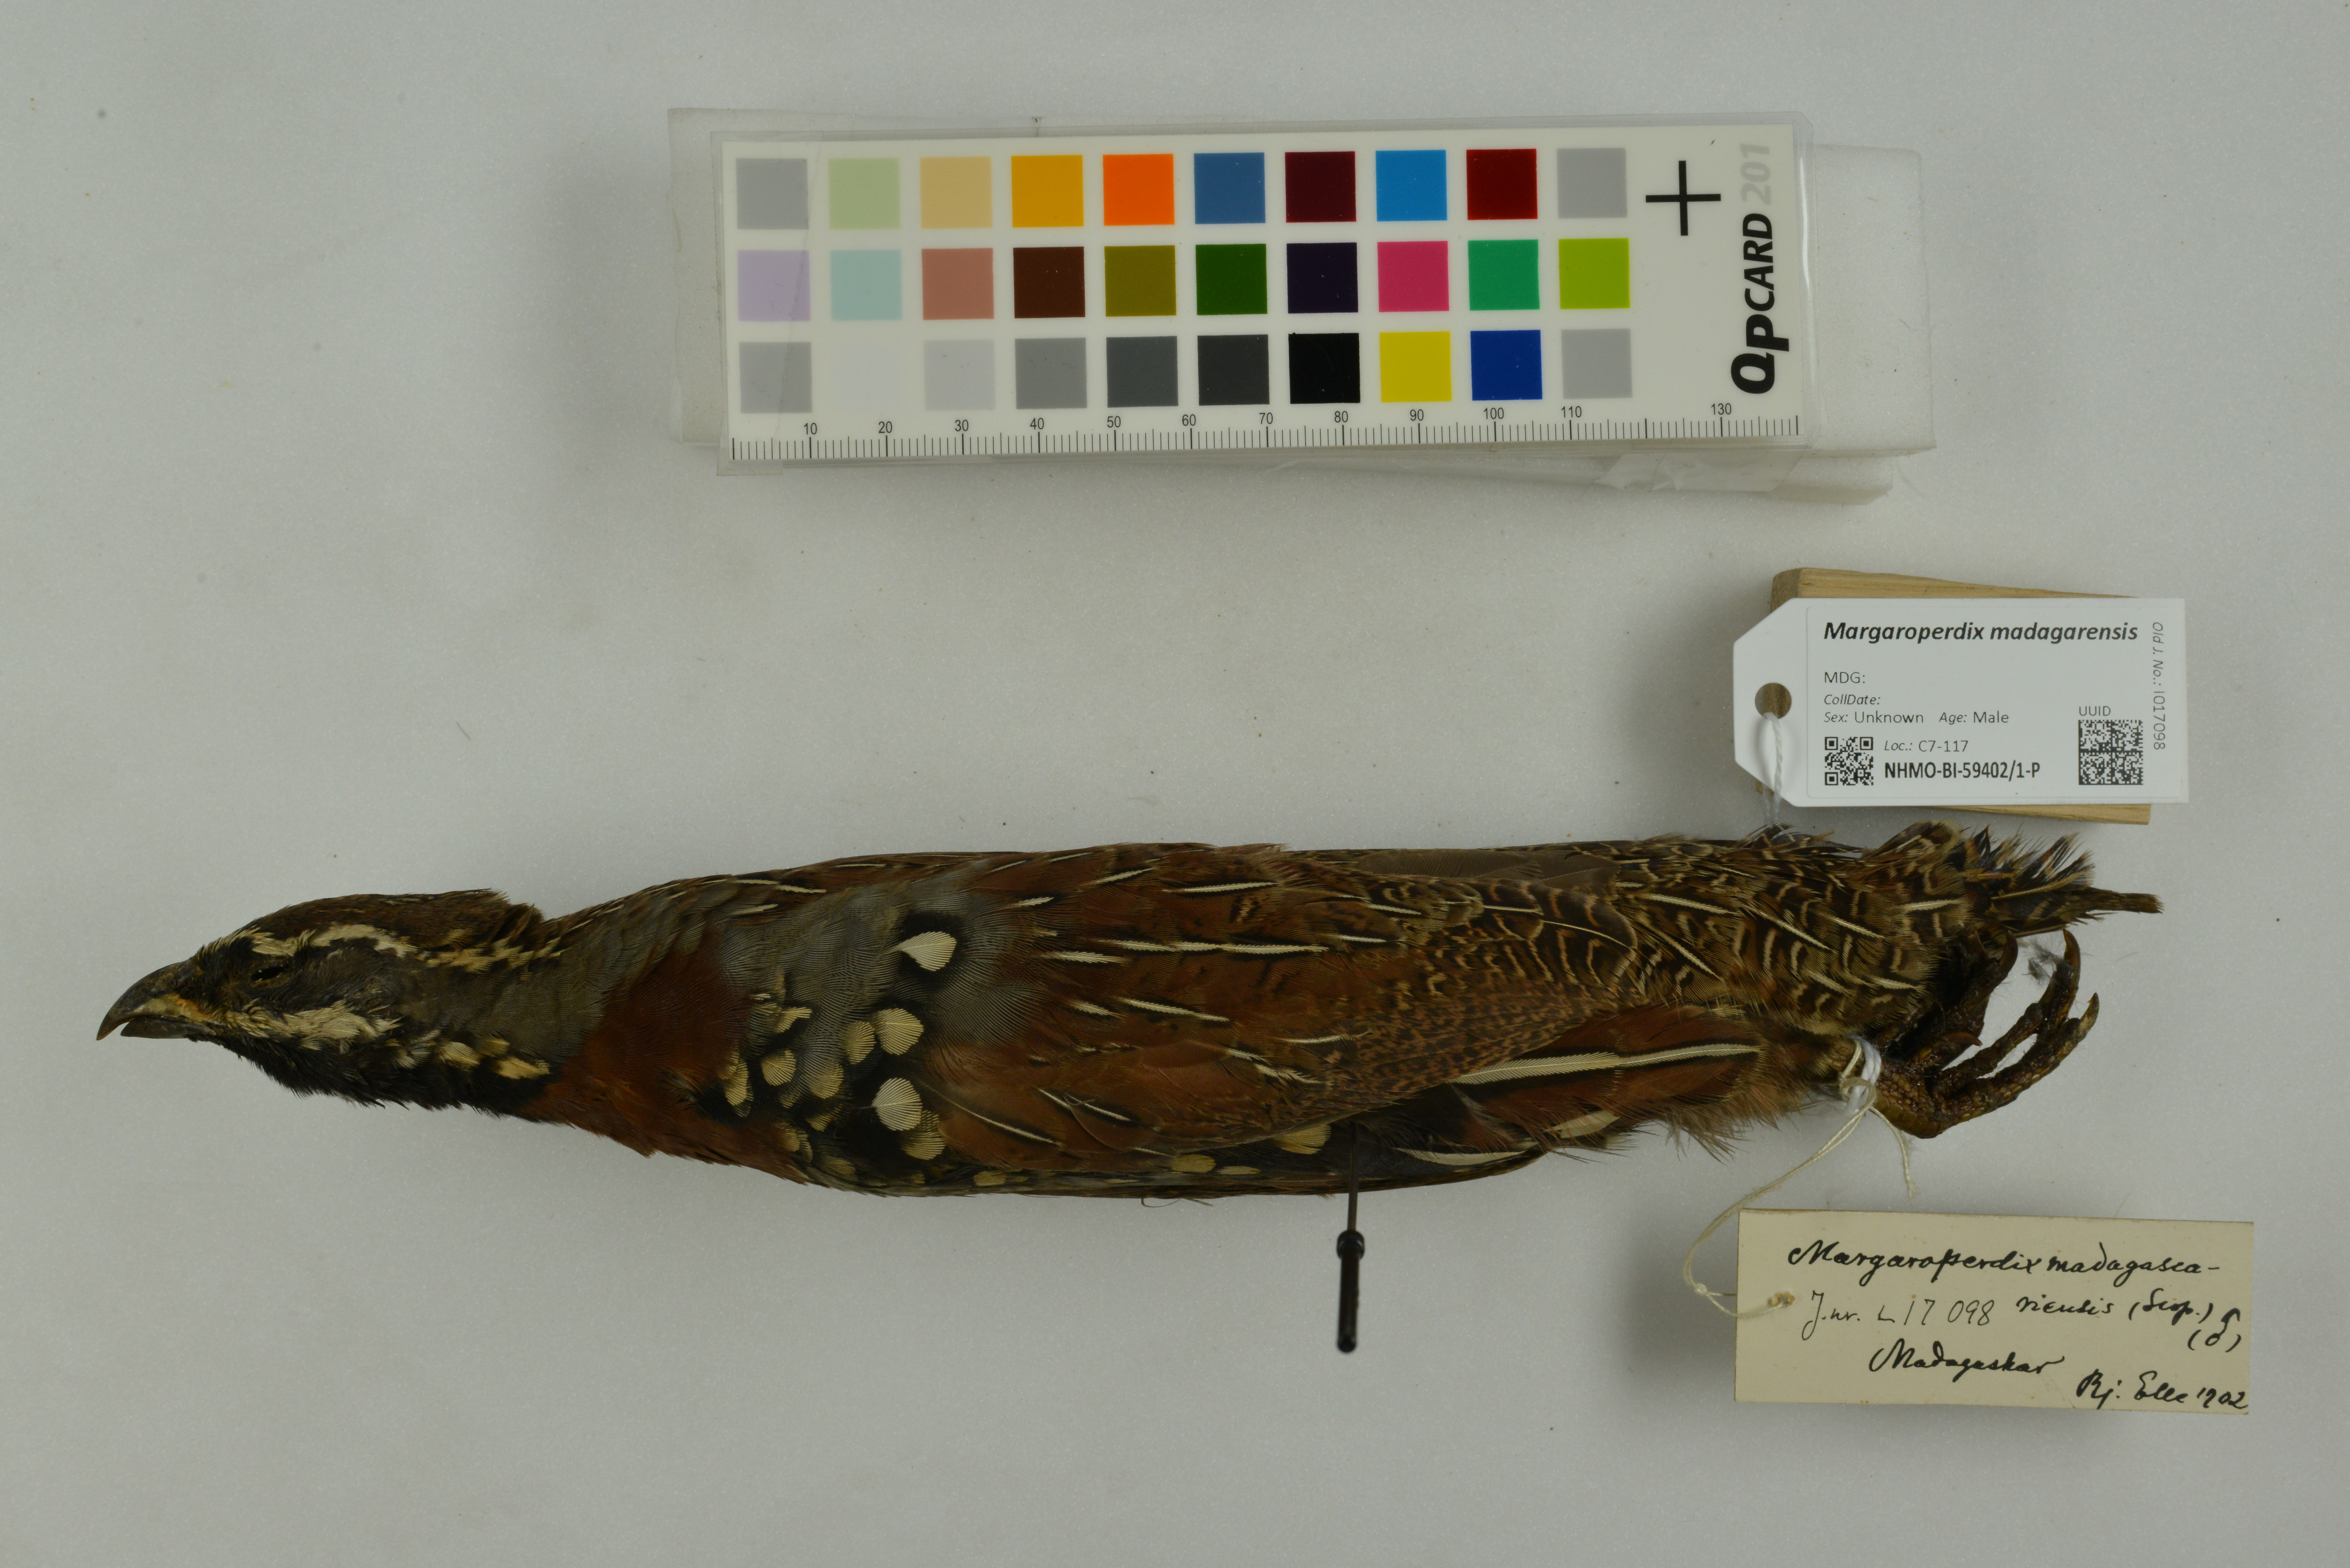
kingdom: Animalia
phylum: Chordata
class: Aves
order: Galliformes
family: Phasianidae
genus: Margaroperdix
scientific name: Margaroperdix madagarensis
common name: Madagascar partridge
